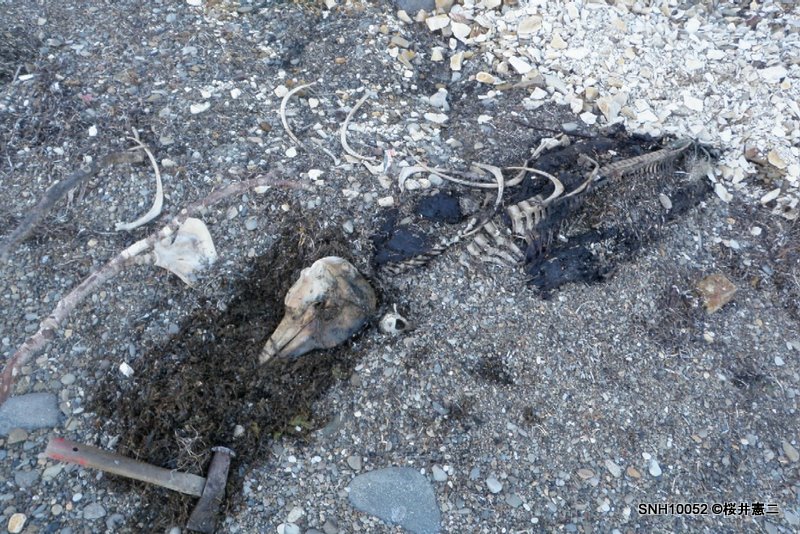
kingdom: Animalia
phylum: Chordata
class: Mammalia
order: Cetacea
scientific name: Cetacea
